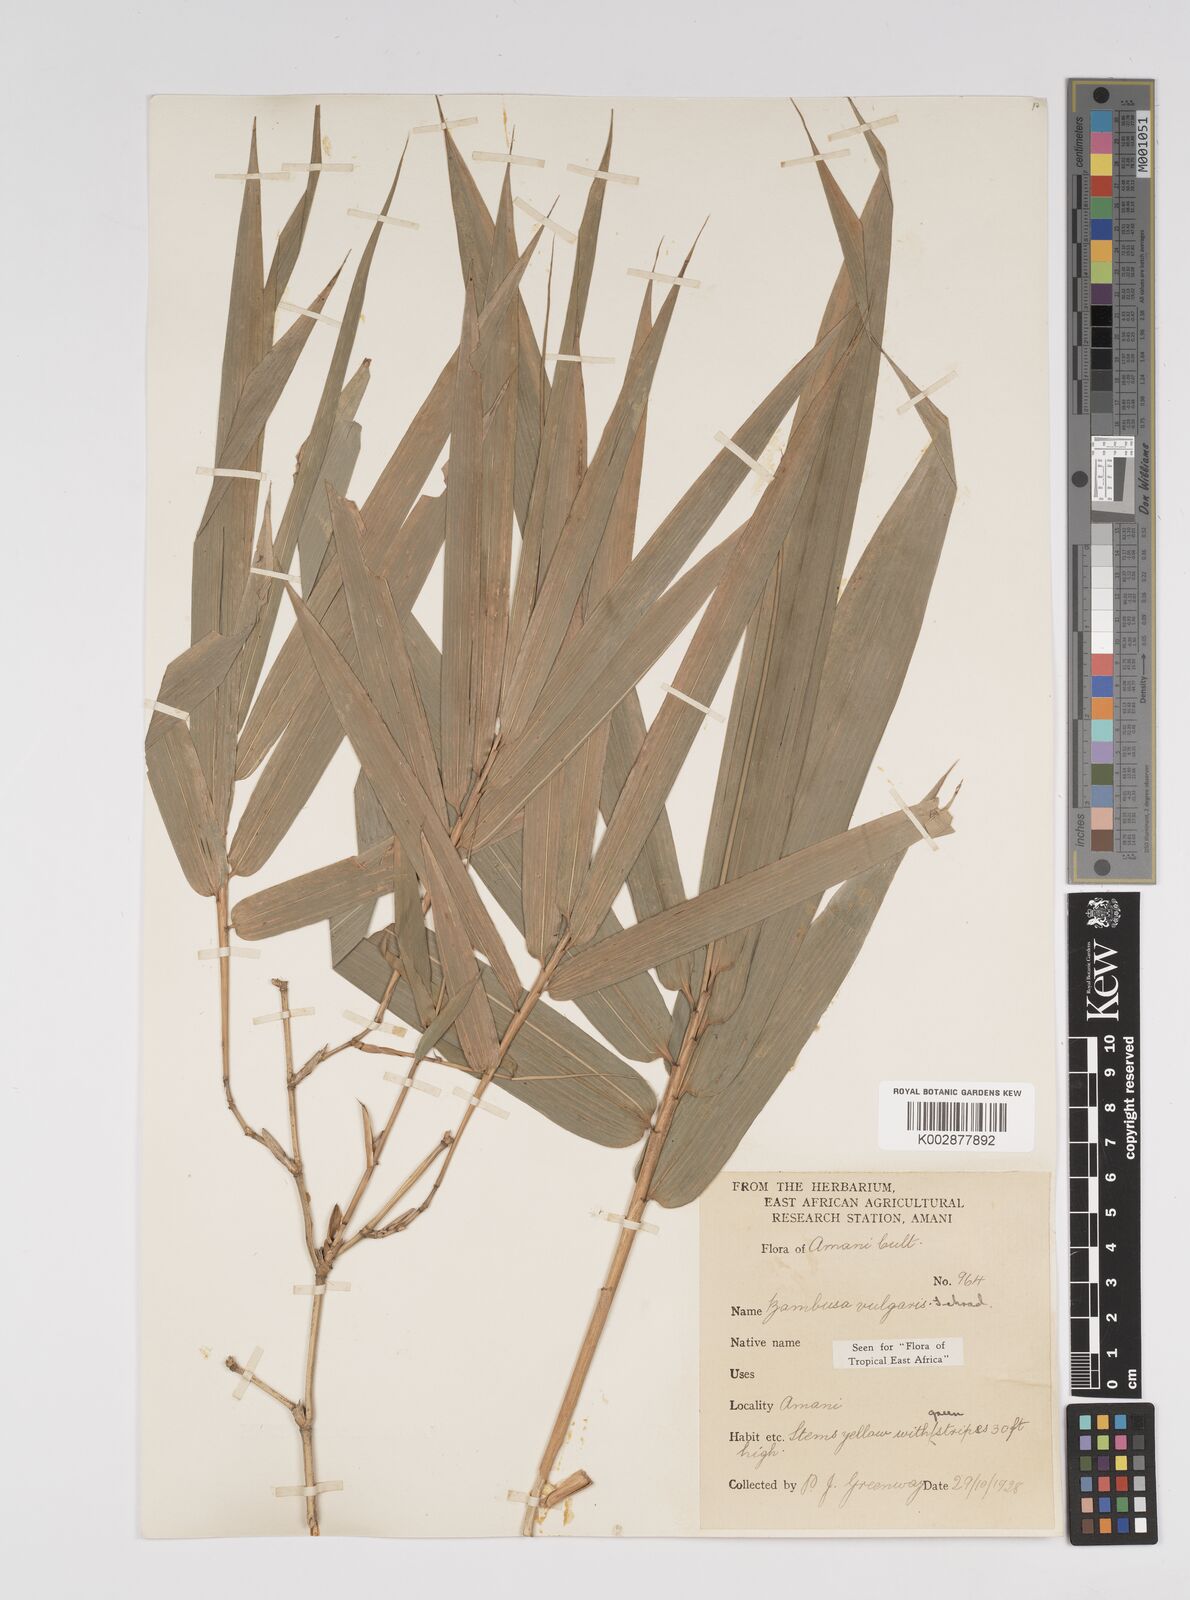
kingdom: Plantae
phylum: Tracheophyta
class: Liliopsida
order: Poales
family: Poaceae
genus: Bambusa
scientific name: Bambusa balcooa
